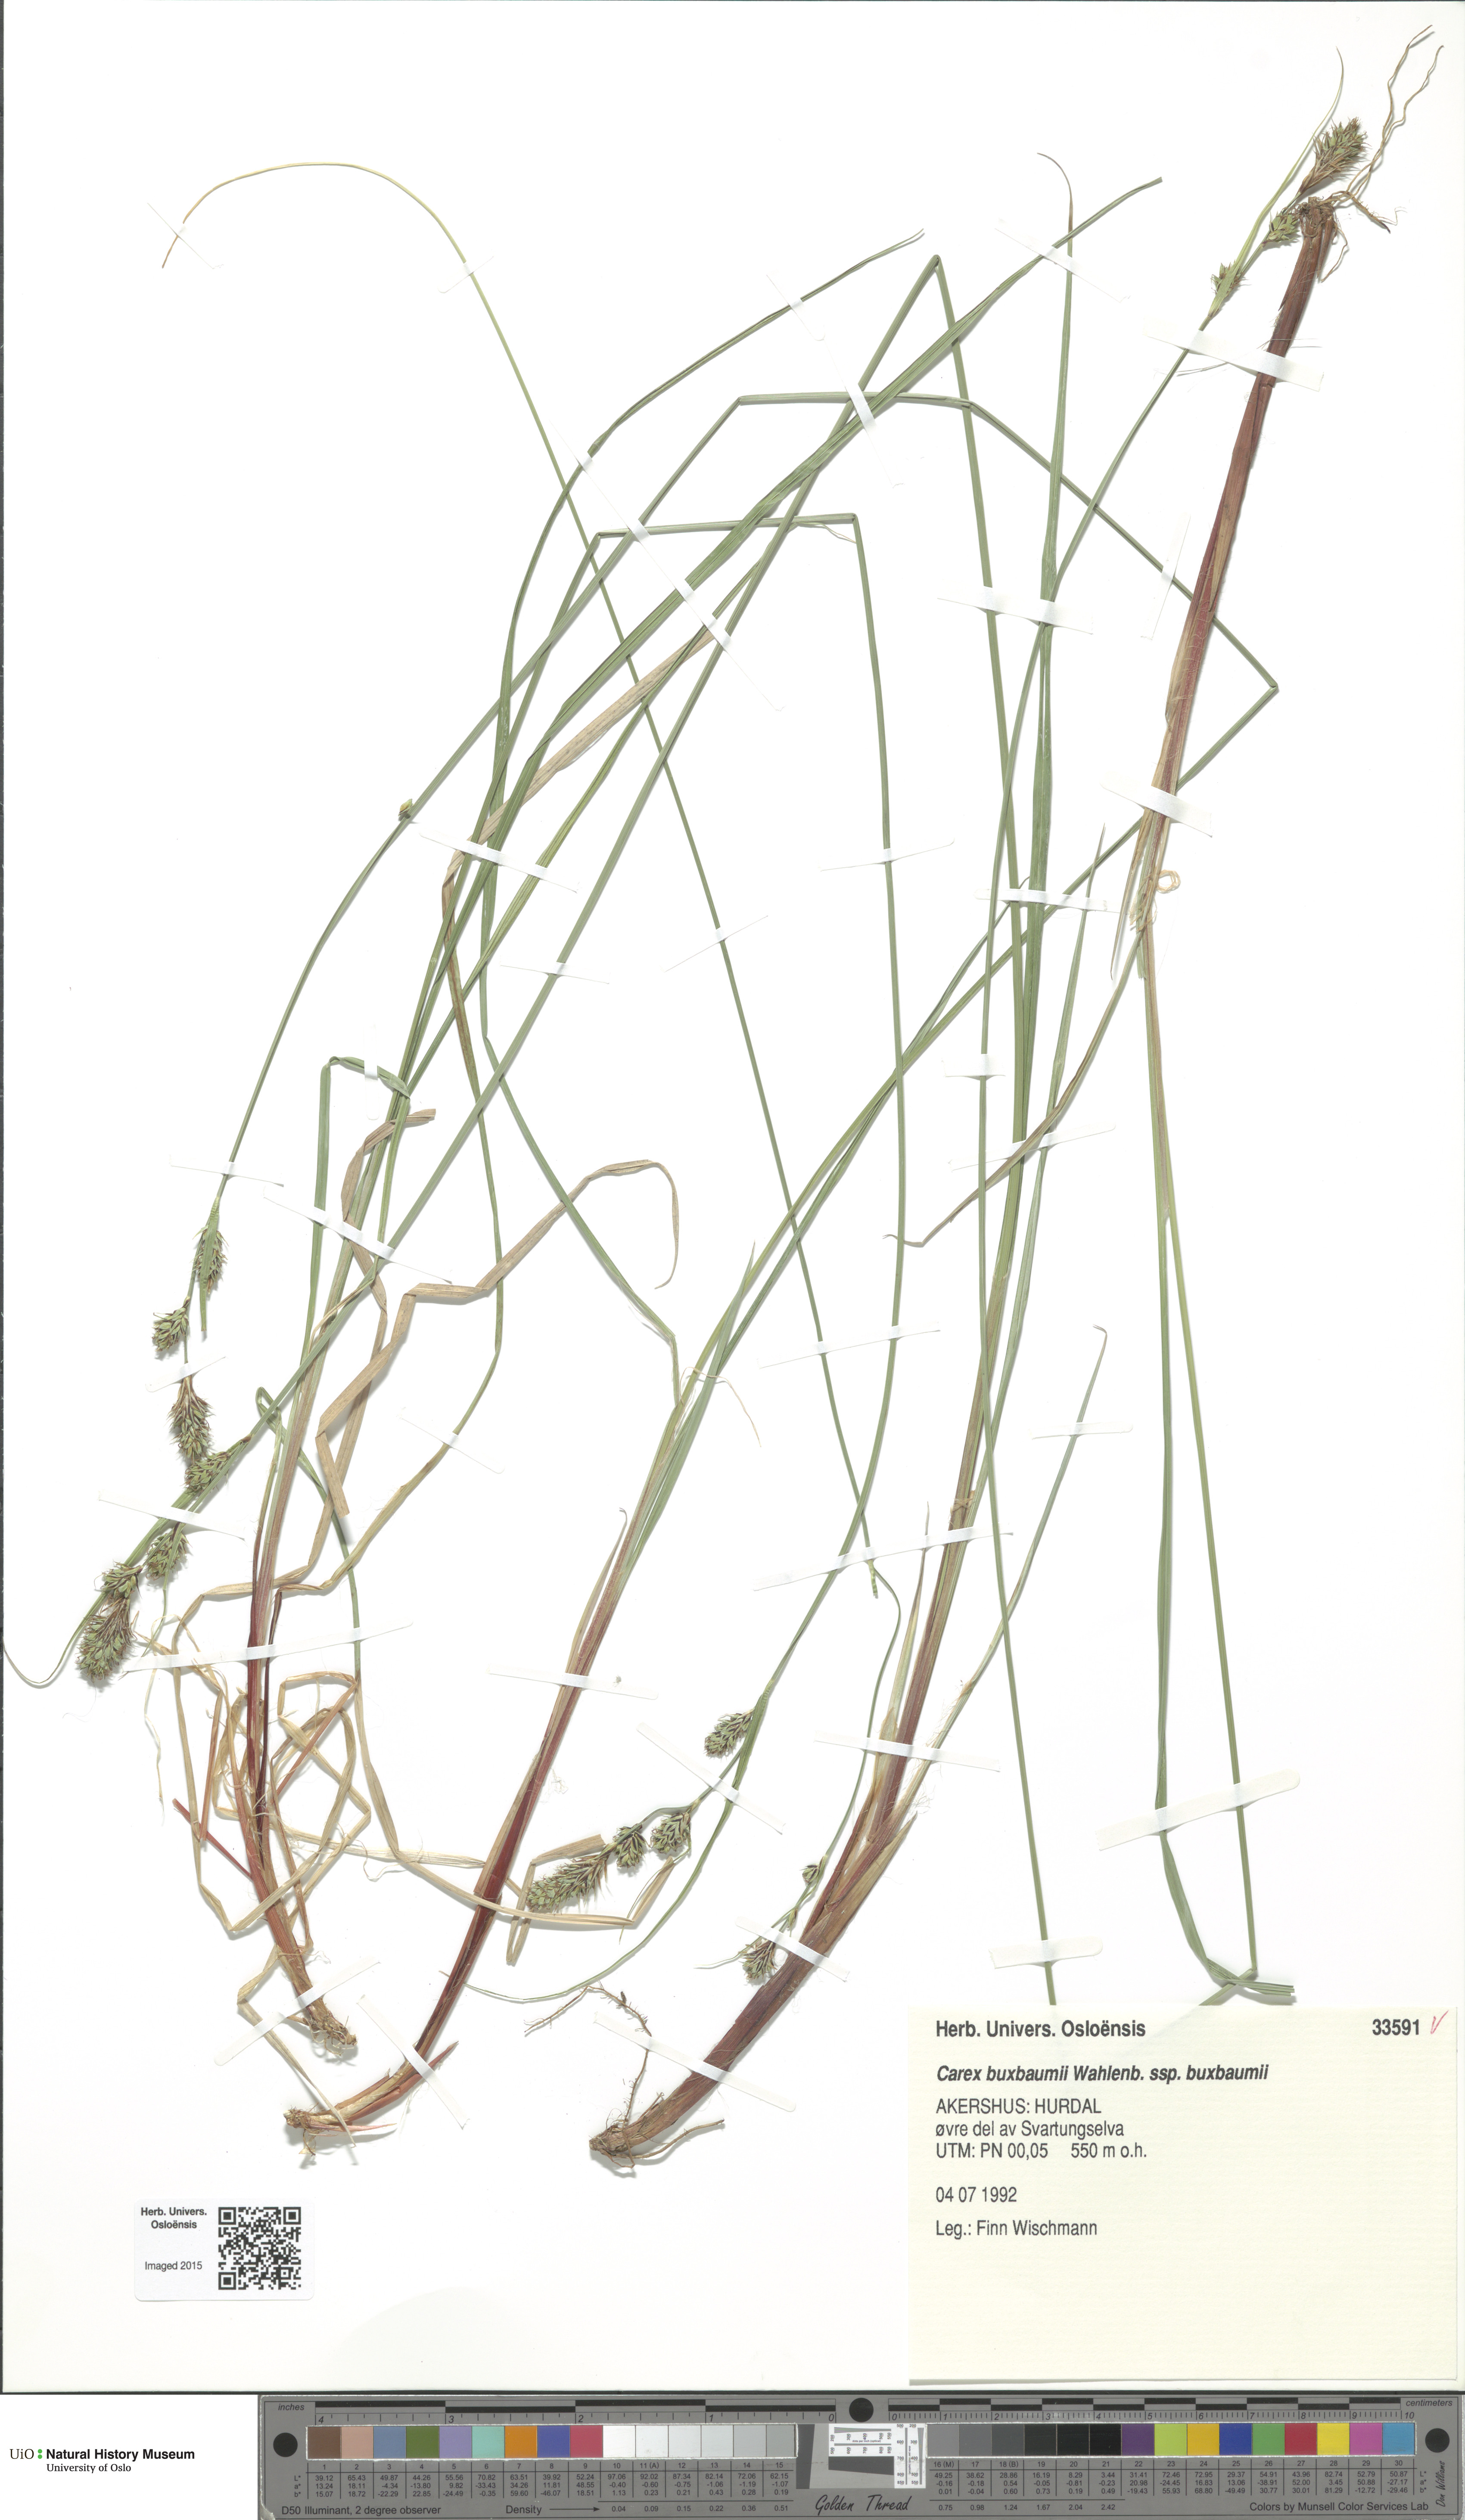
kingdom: Plantae
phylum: Tracheophyta
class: Liliopsida
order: Poales
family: Cyperaceae
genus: Carex
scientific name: Carex buxbaumii
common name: Club sedge
